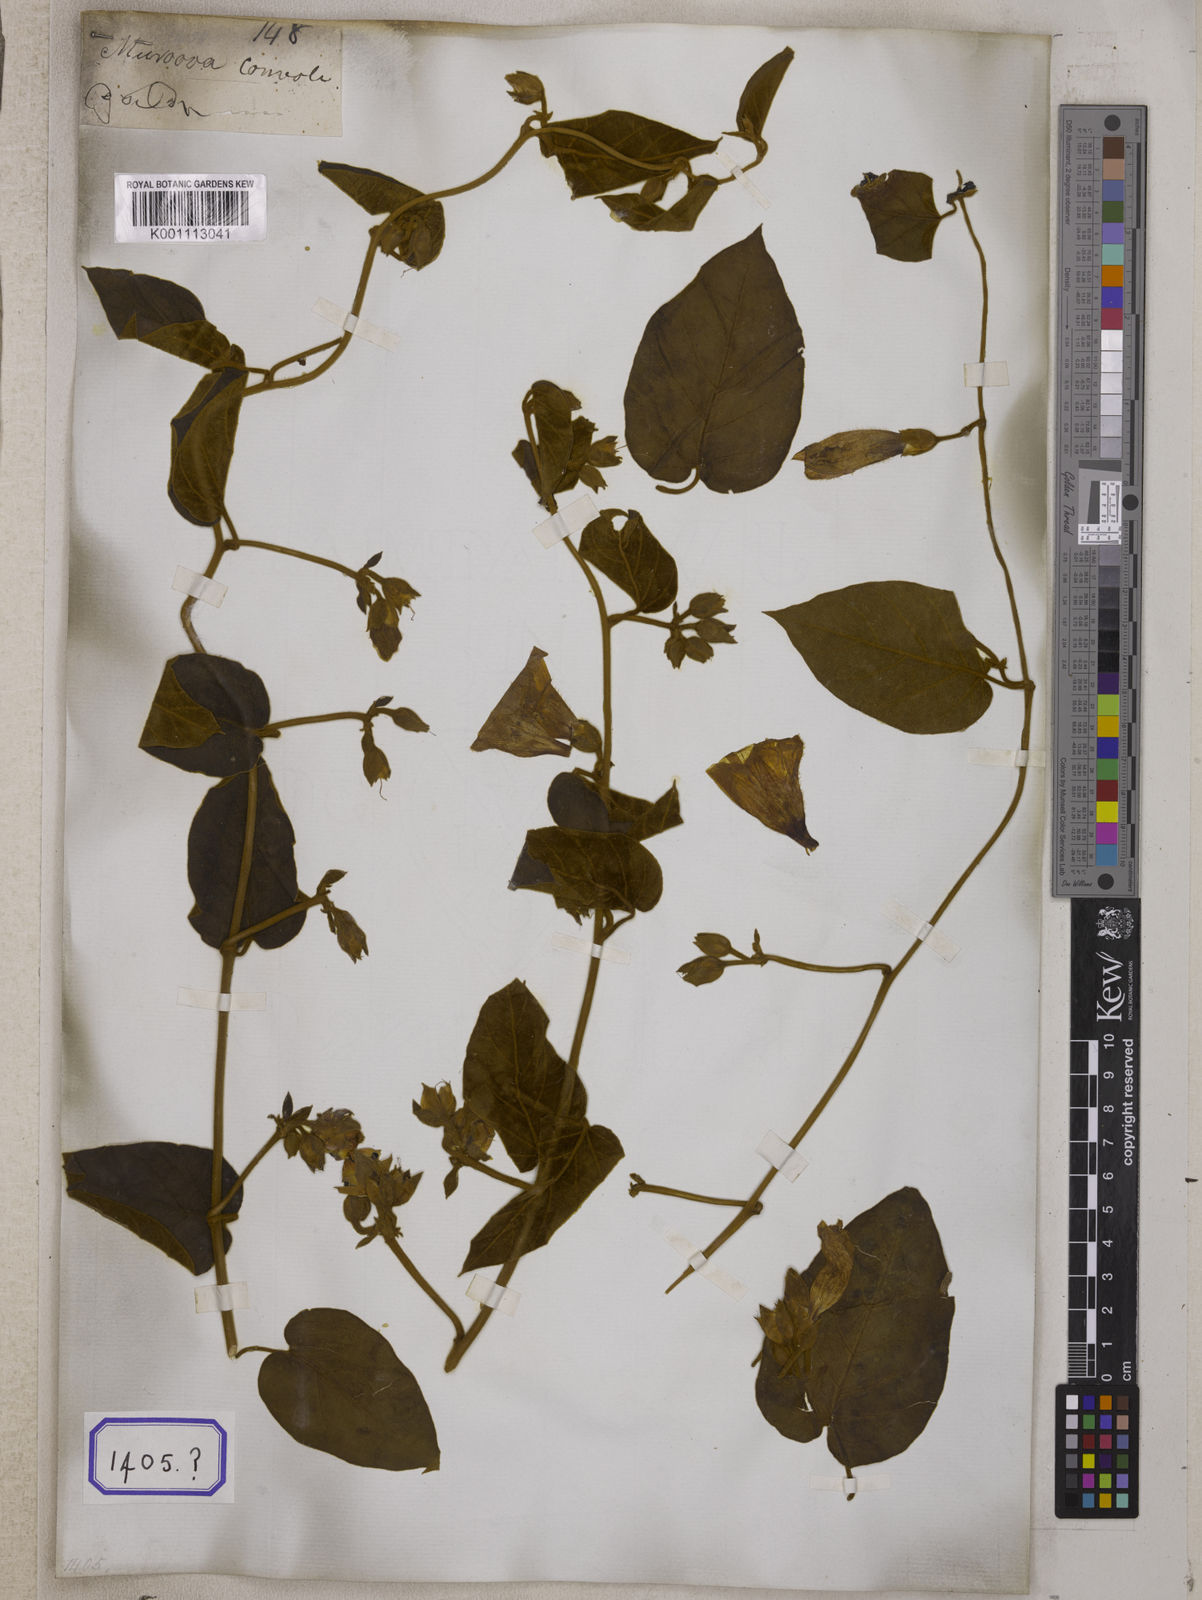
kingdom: Plantae
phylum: Tracheophyta
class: Magnoliopsida
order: Solanales
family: Convolvulaceae
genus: Bonamia
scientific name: Bonamia semidigyna
